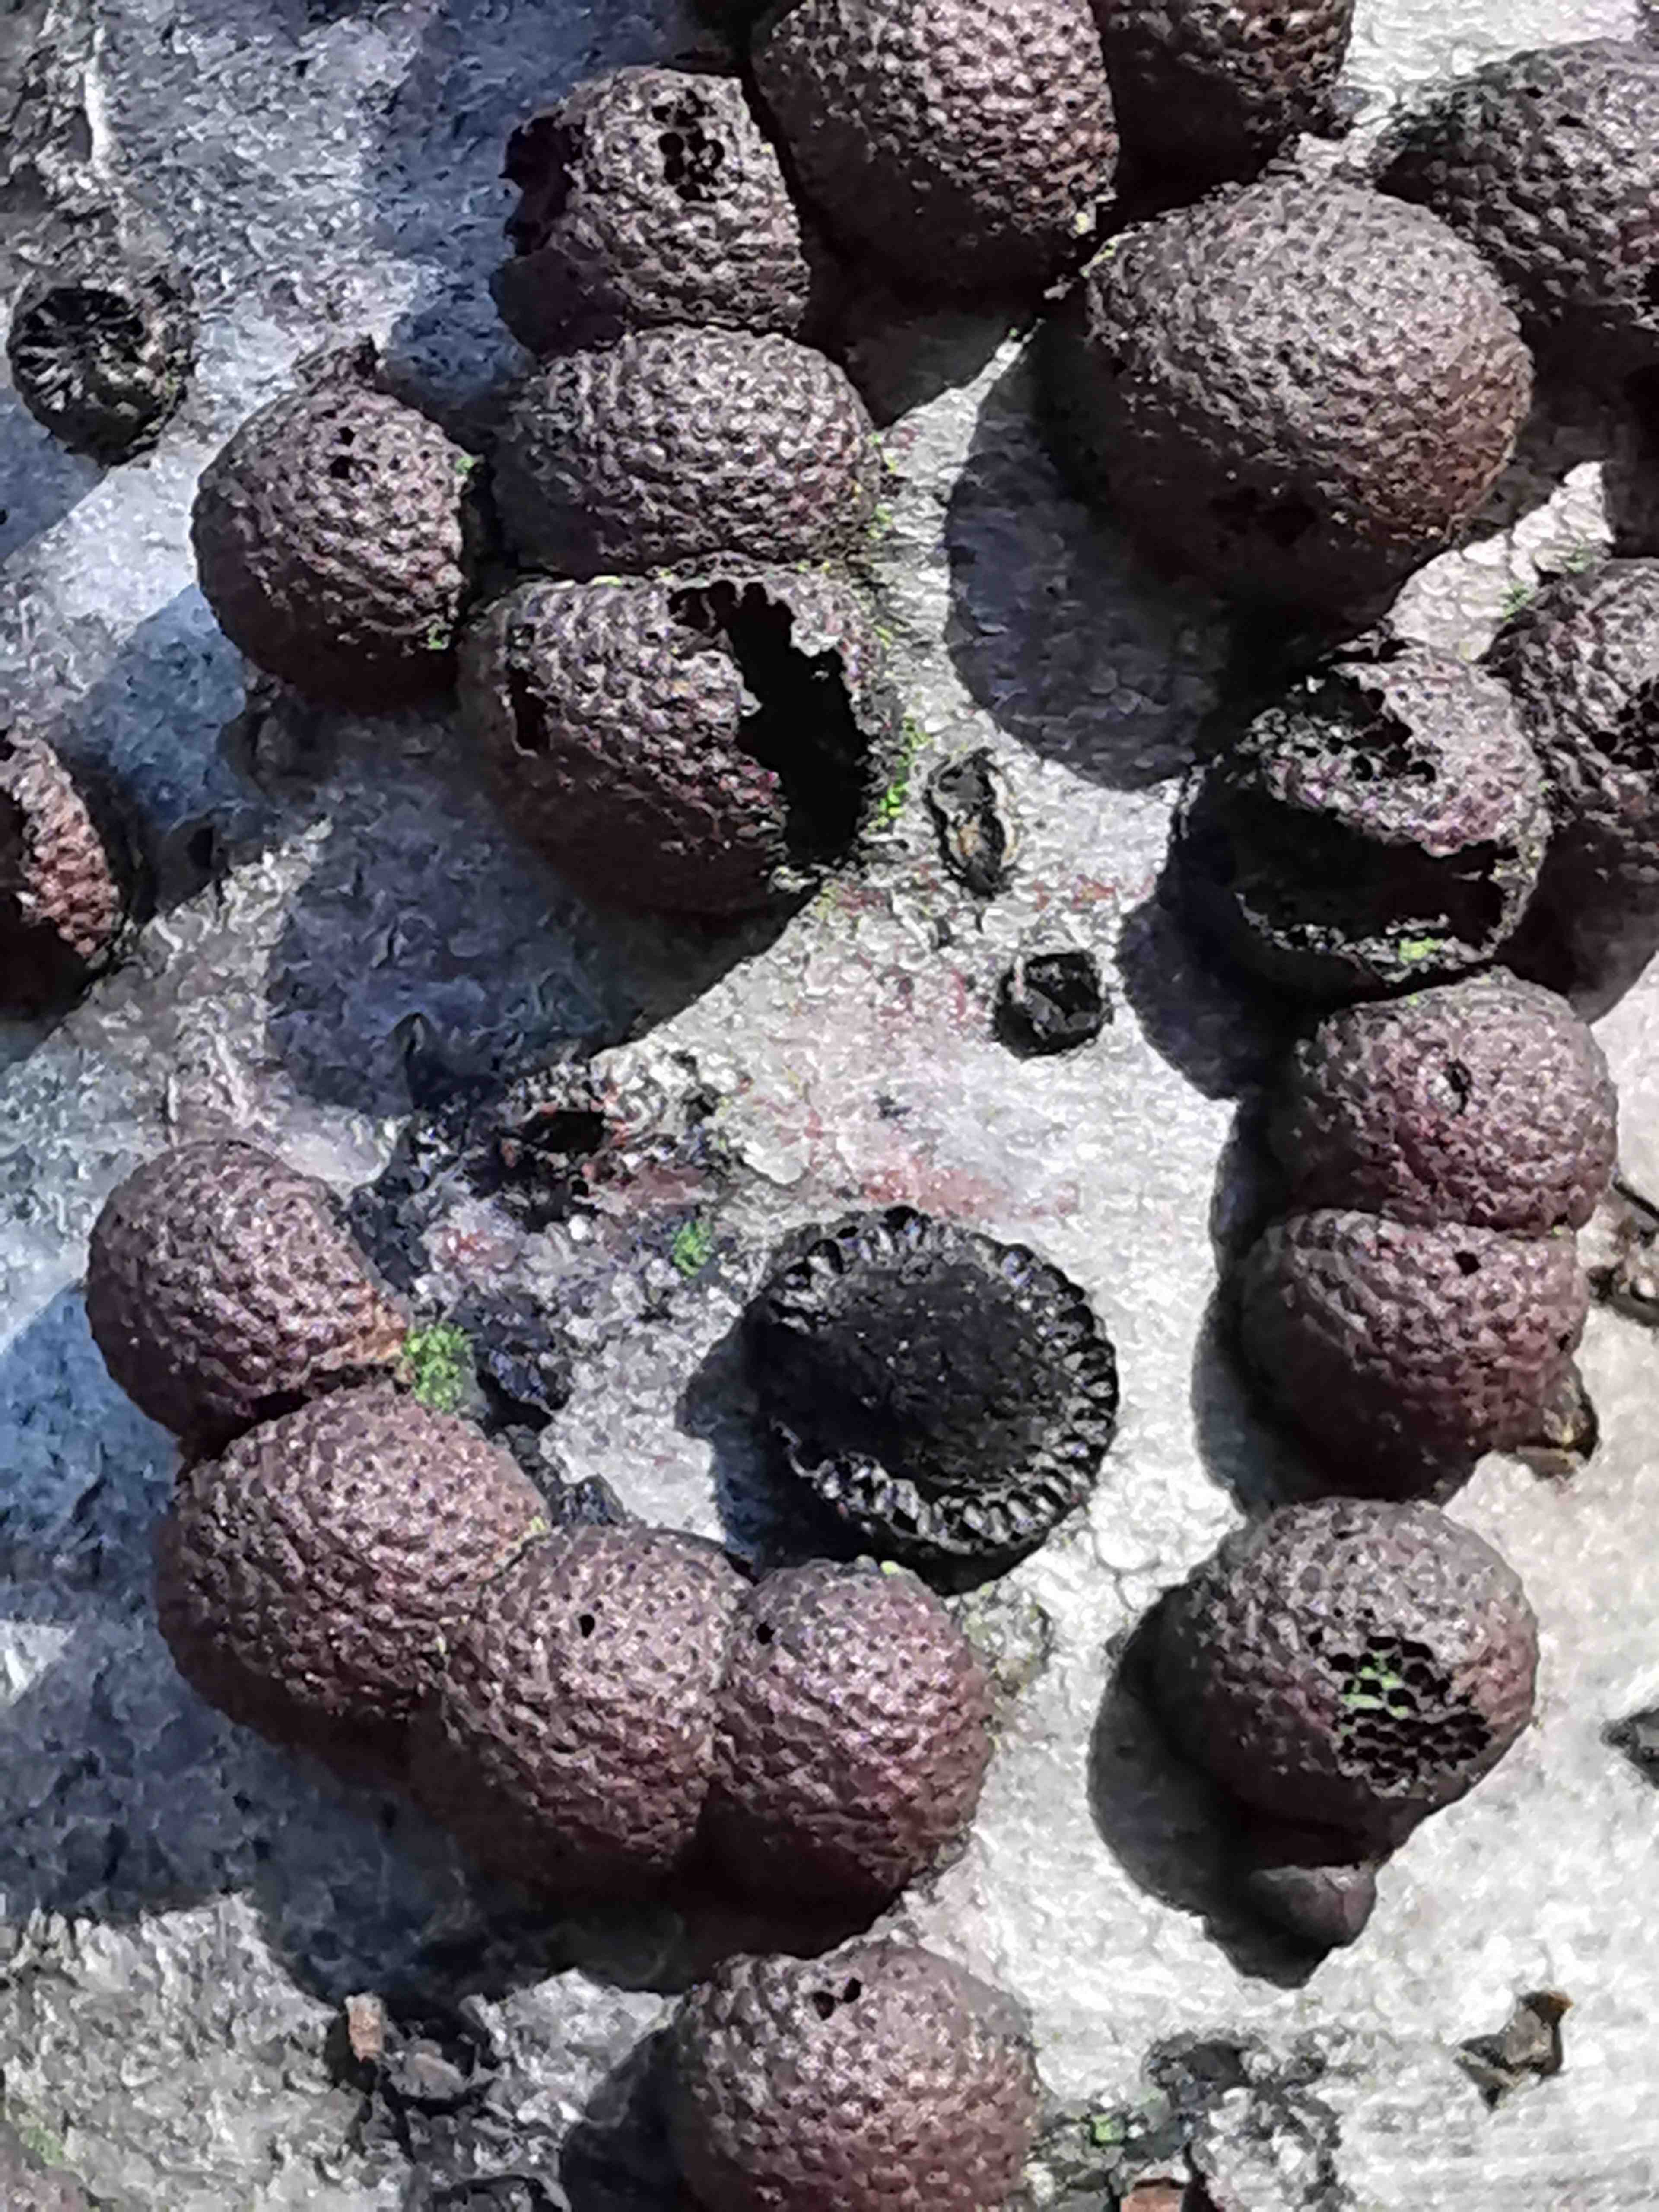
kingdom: Fungi
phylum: Ascomycota
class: Sordariomycetes
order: Xylariales
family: Hypoxylaceae
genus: Hypoxylon
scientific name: Hypoxylon fragiforme
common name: kuljordbær
